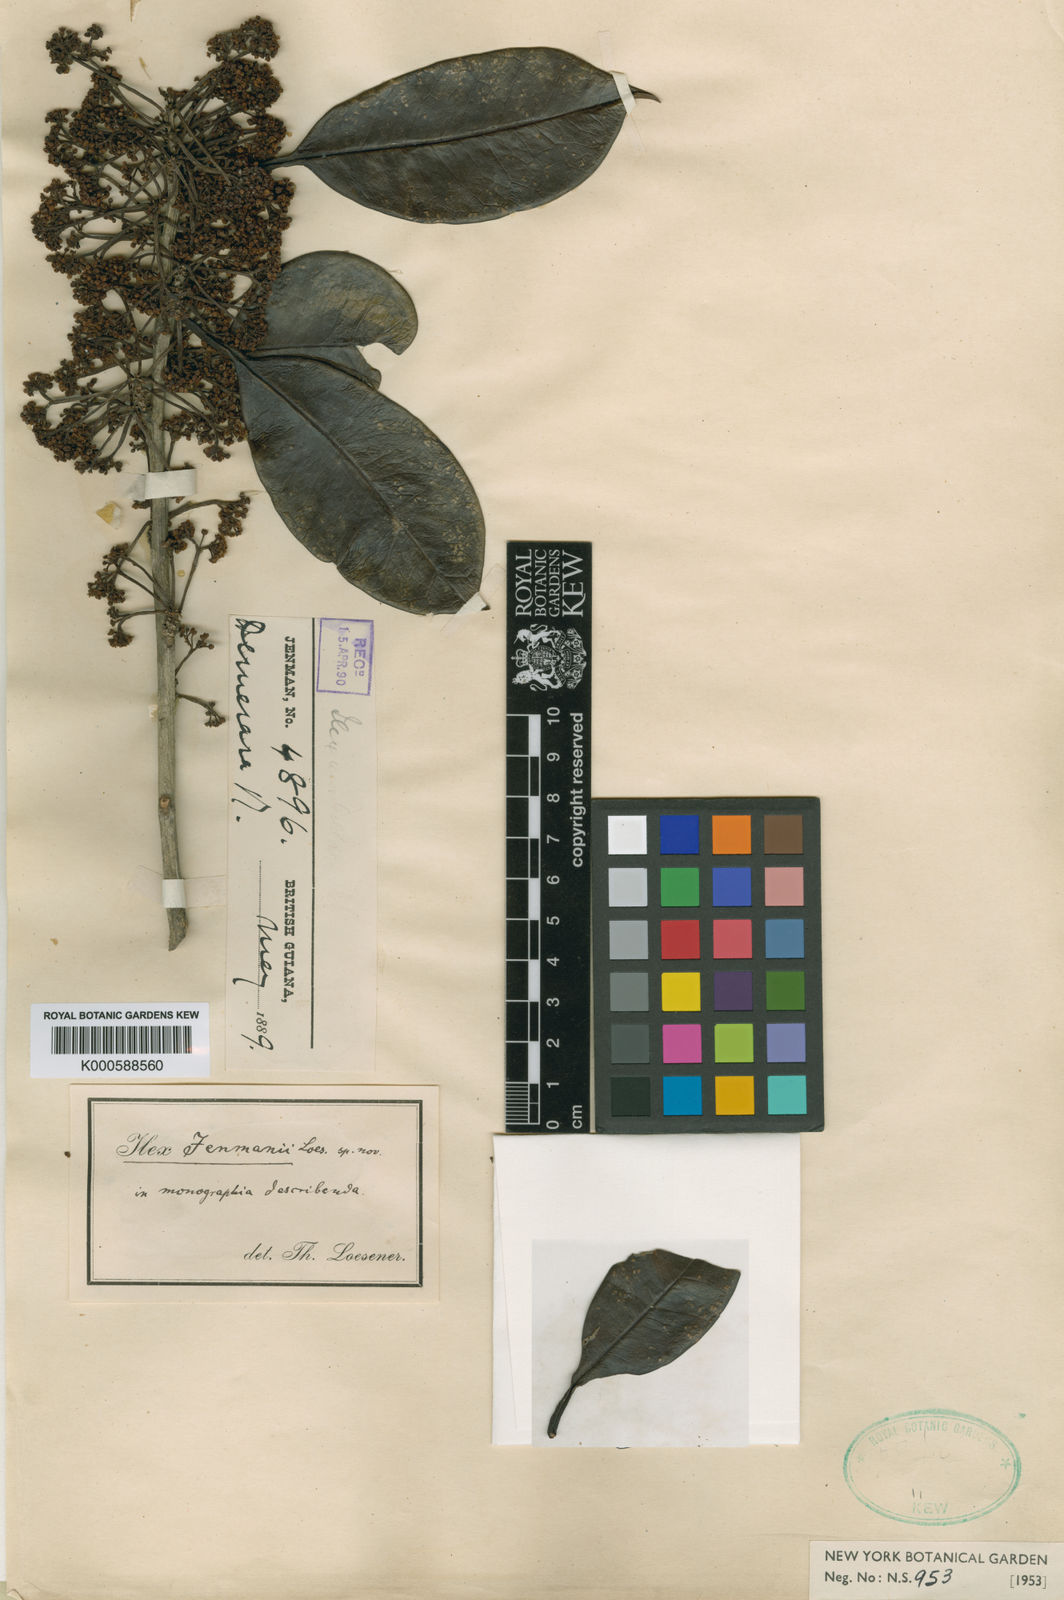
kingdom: Plantae
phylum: Tracheophyta
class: Magnoliopsida
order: Aquifoliales
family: Aquifoliaceae
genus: Ilex
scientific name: Ilex jenmanii
